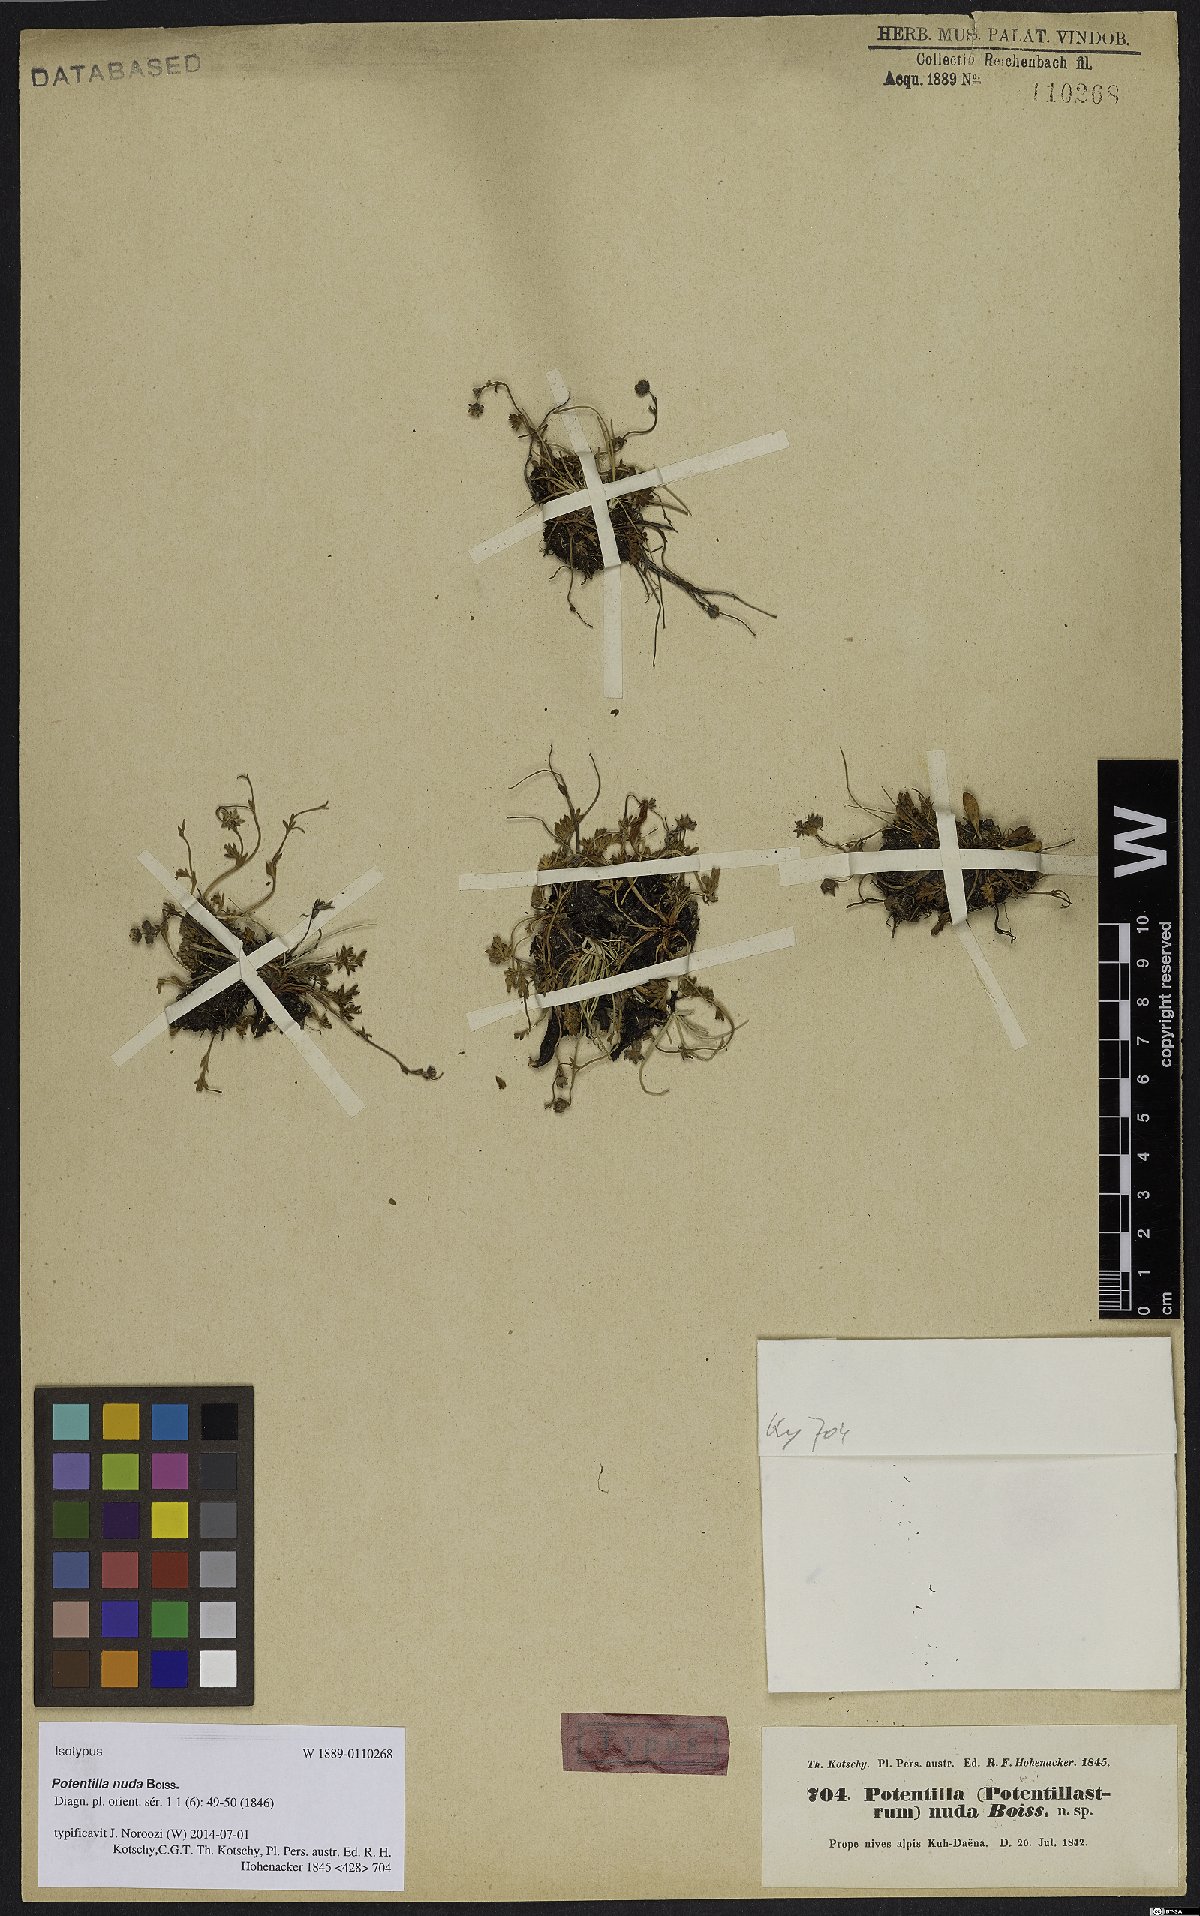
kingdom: Plantae
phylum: Tracheophyta
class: Magnoliopsida
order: Rosales
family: Rosaceae
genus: Potentilla
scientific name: Potentilla nuda
